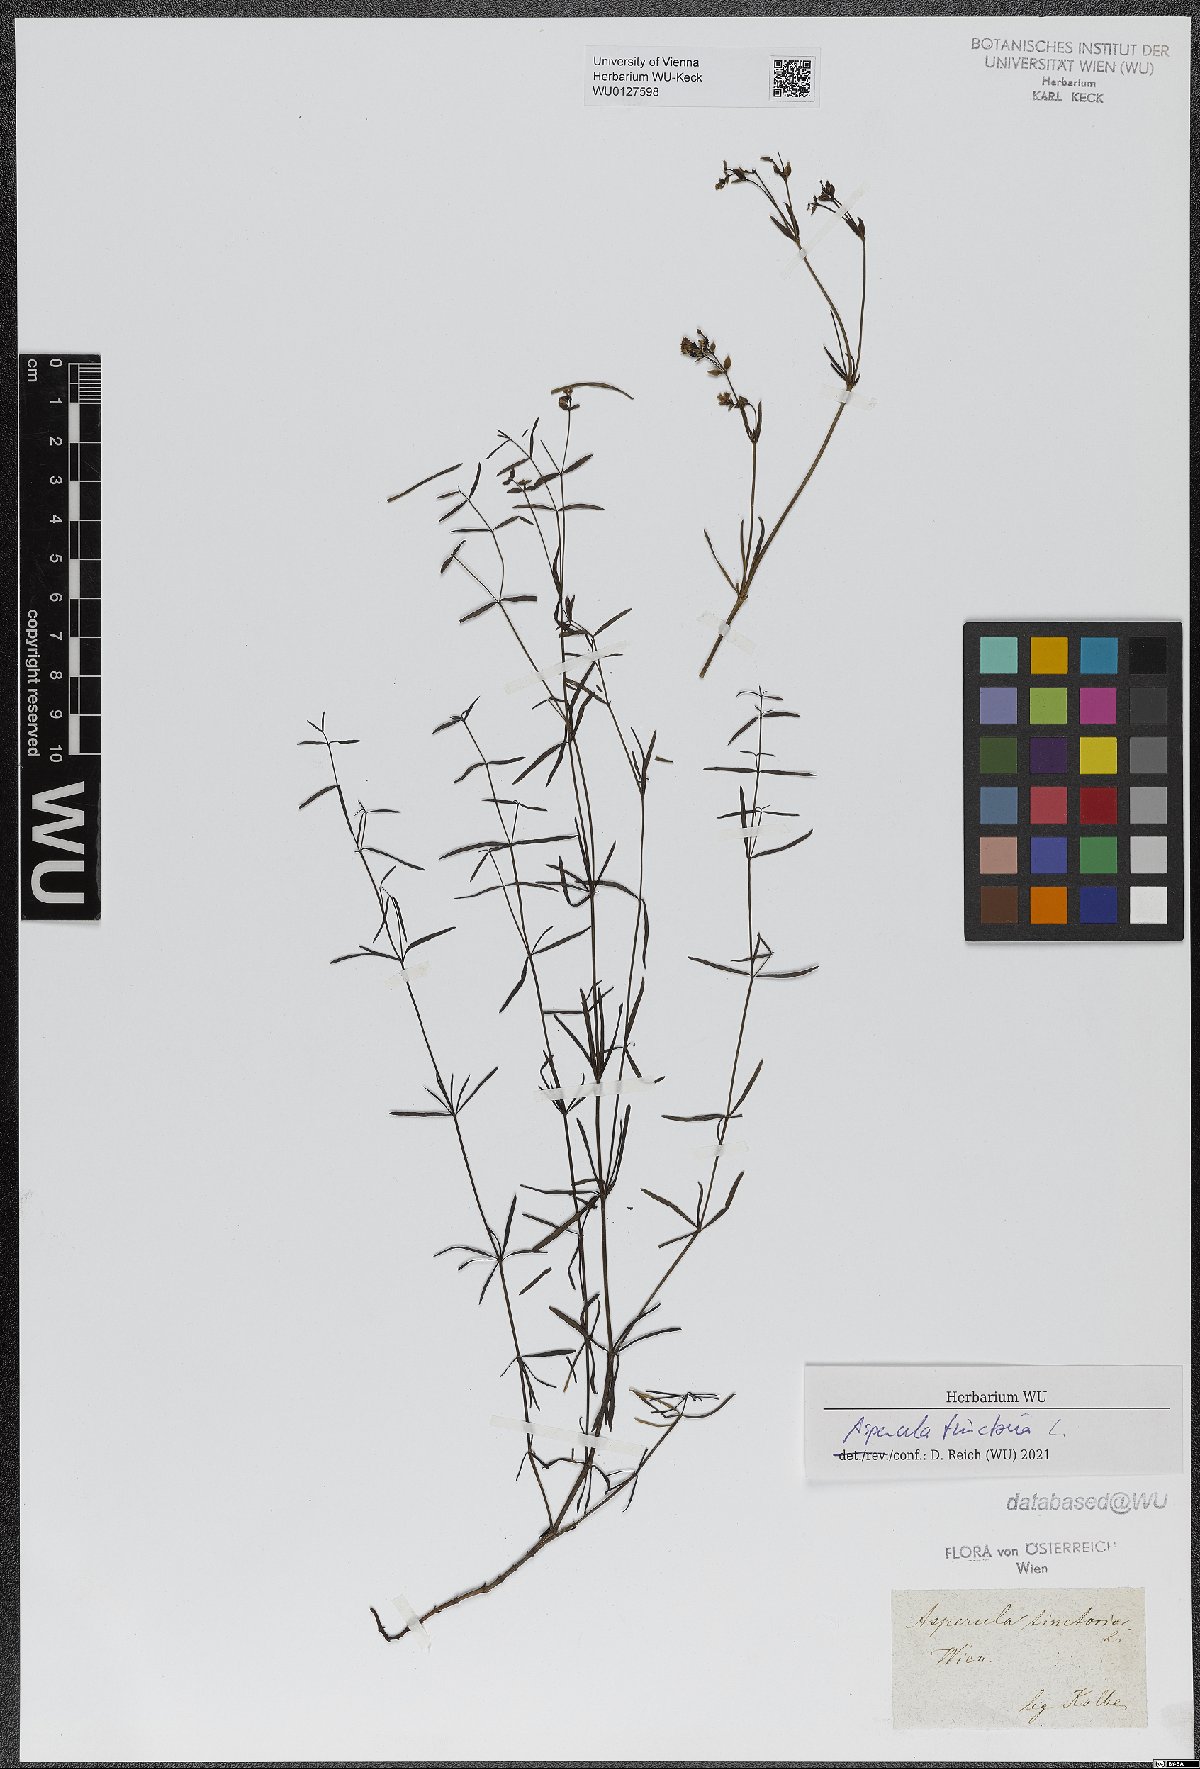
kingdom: Plantae
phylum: Tracheophyta
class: Magnoliopsida
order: Gentianales
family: Rubiaceae
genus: Asperula
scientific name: Asperula tinctoria
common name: Dyer's woodruff
